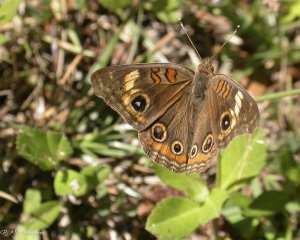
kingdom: Animalia
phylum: Arthropoda
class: Insecta
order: Lepidoptera
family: Nymphalidae
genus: Junonia
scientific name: Junonia evarete
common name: Mangrove Buckeye
